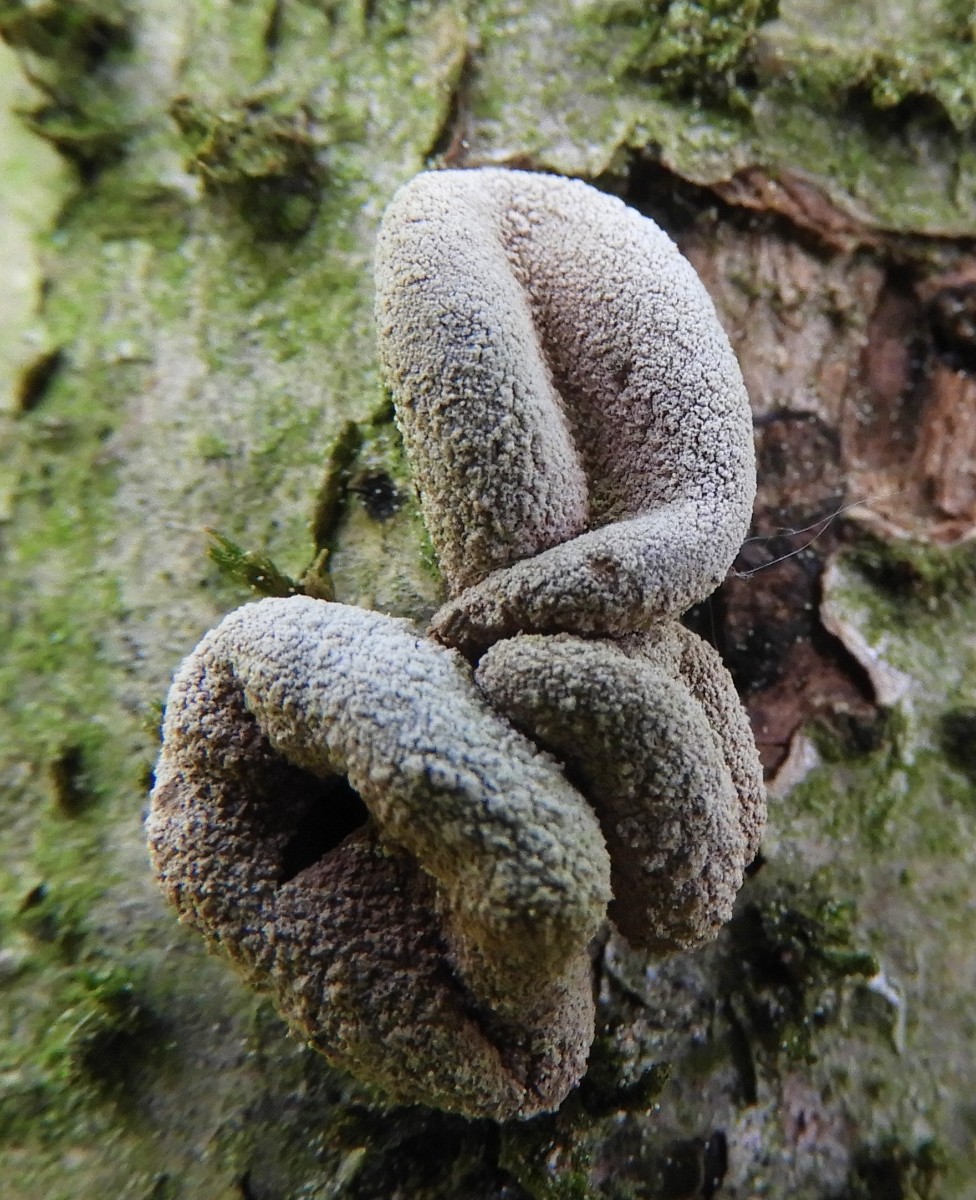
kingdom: Fungi
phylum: Ascomycota
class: Leotiomycetes
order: Helotiales
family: Cenangiaceae
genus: Encoelia
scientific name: Encoelia furfuracea
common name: hassel-læderskive
